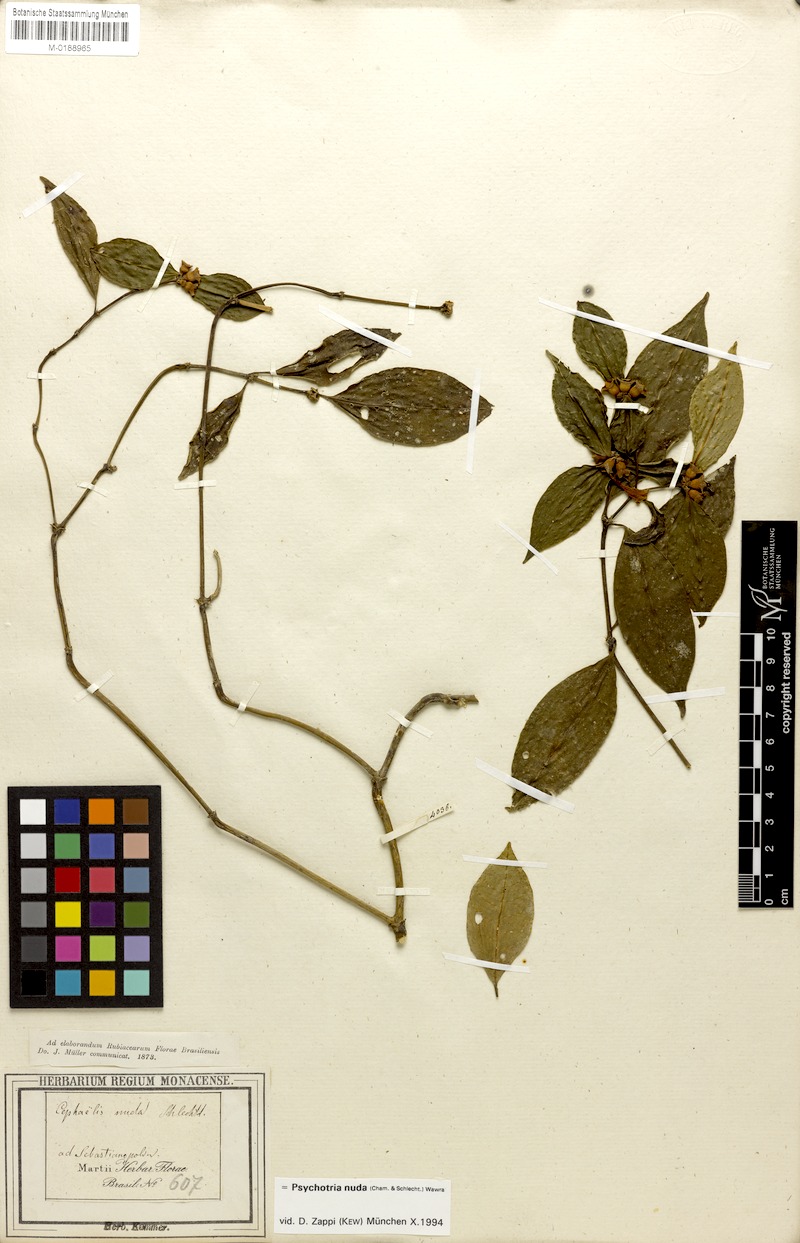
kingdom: Plantae
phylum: Tracheophyta
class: Magnoliopsida
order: Gentianales
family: Rubiaceae
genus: Psychotria
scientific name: Psychotria nuda
